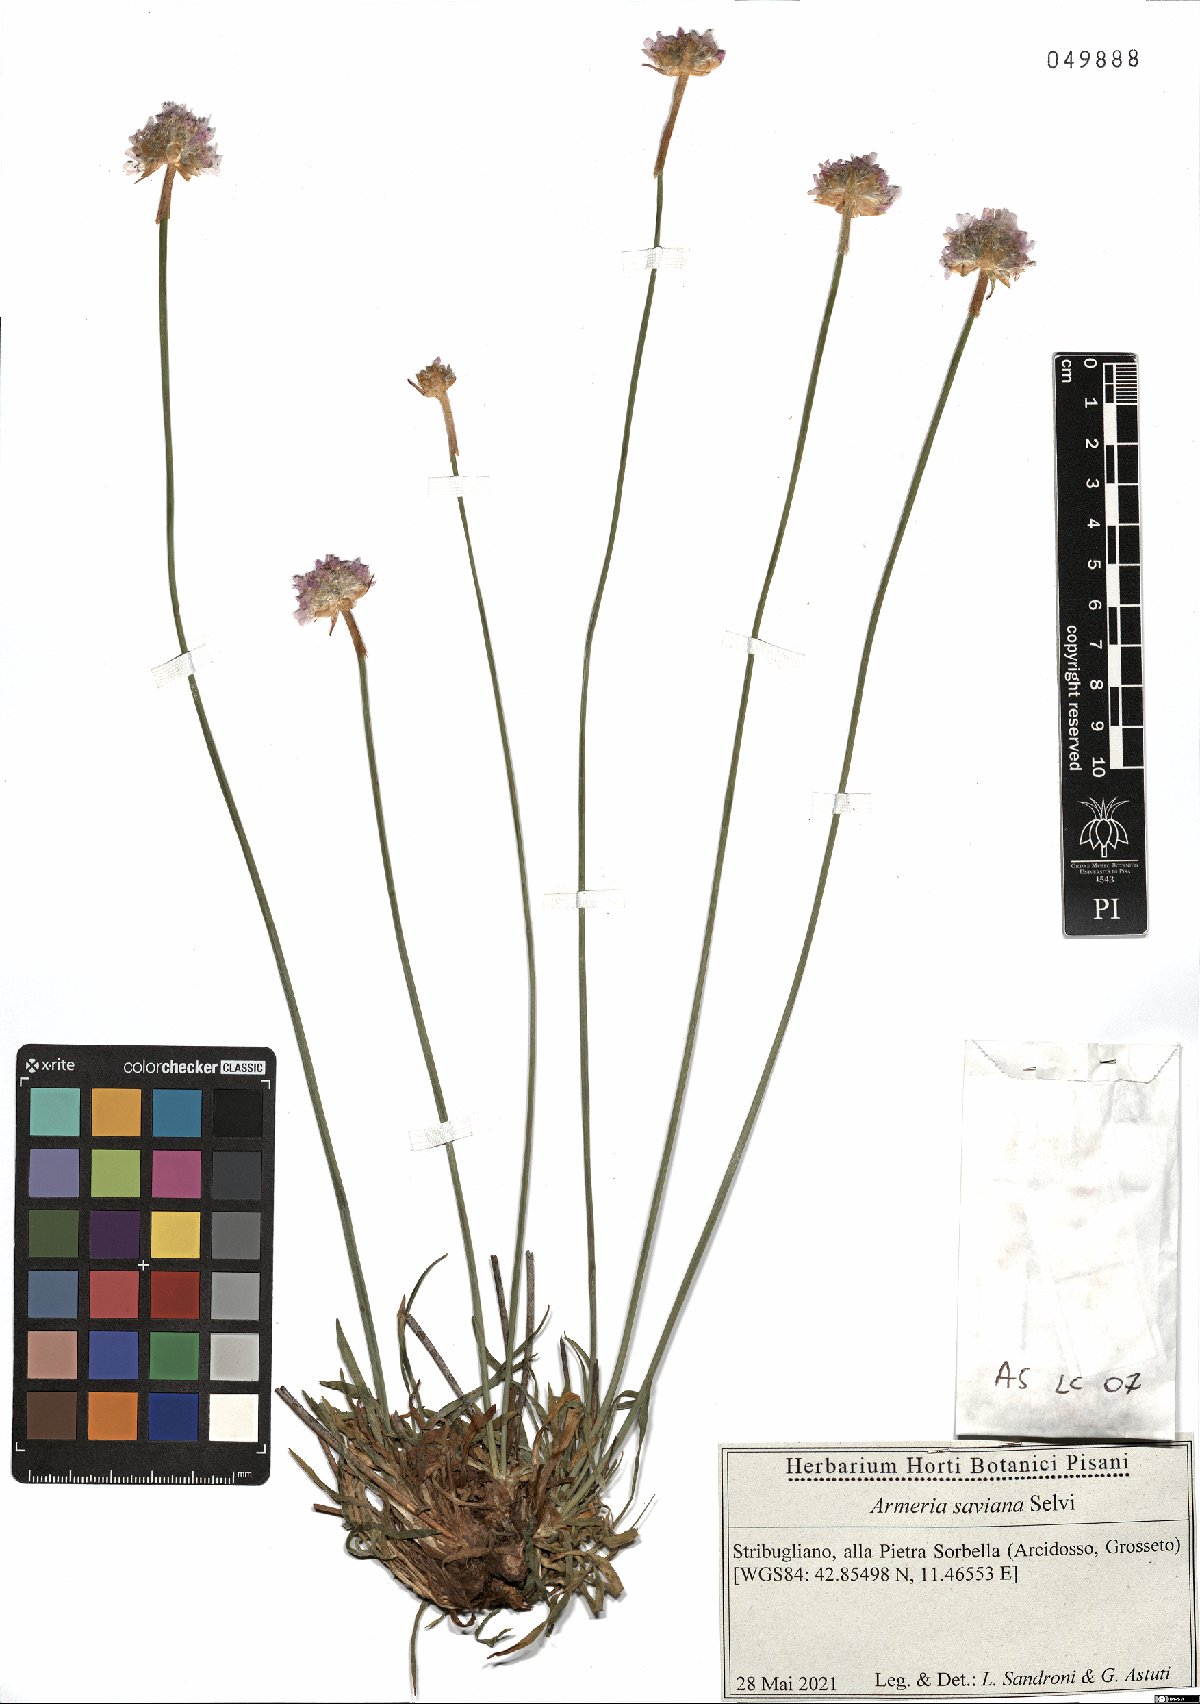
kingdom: Plantae
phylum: Tracheophyta
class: Magnoliopsida
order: Caryophyllales
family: Plumbaginaceae
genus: Armeria
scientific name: Armeria saviana
